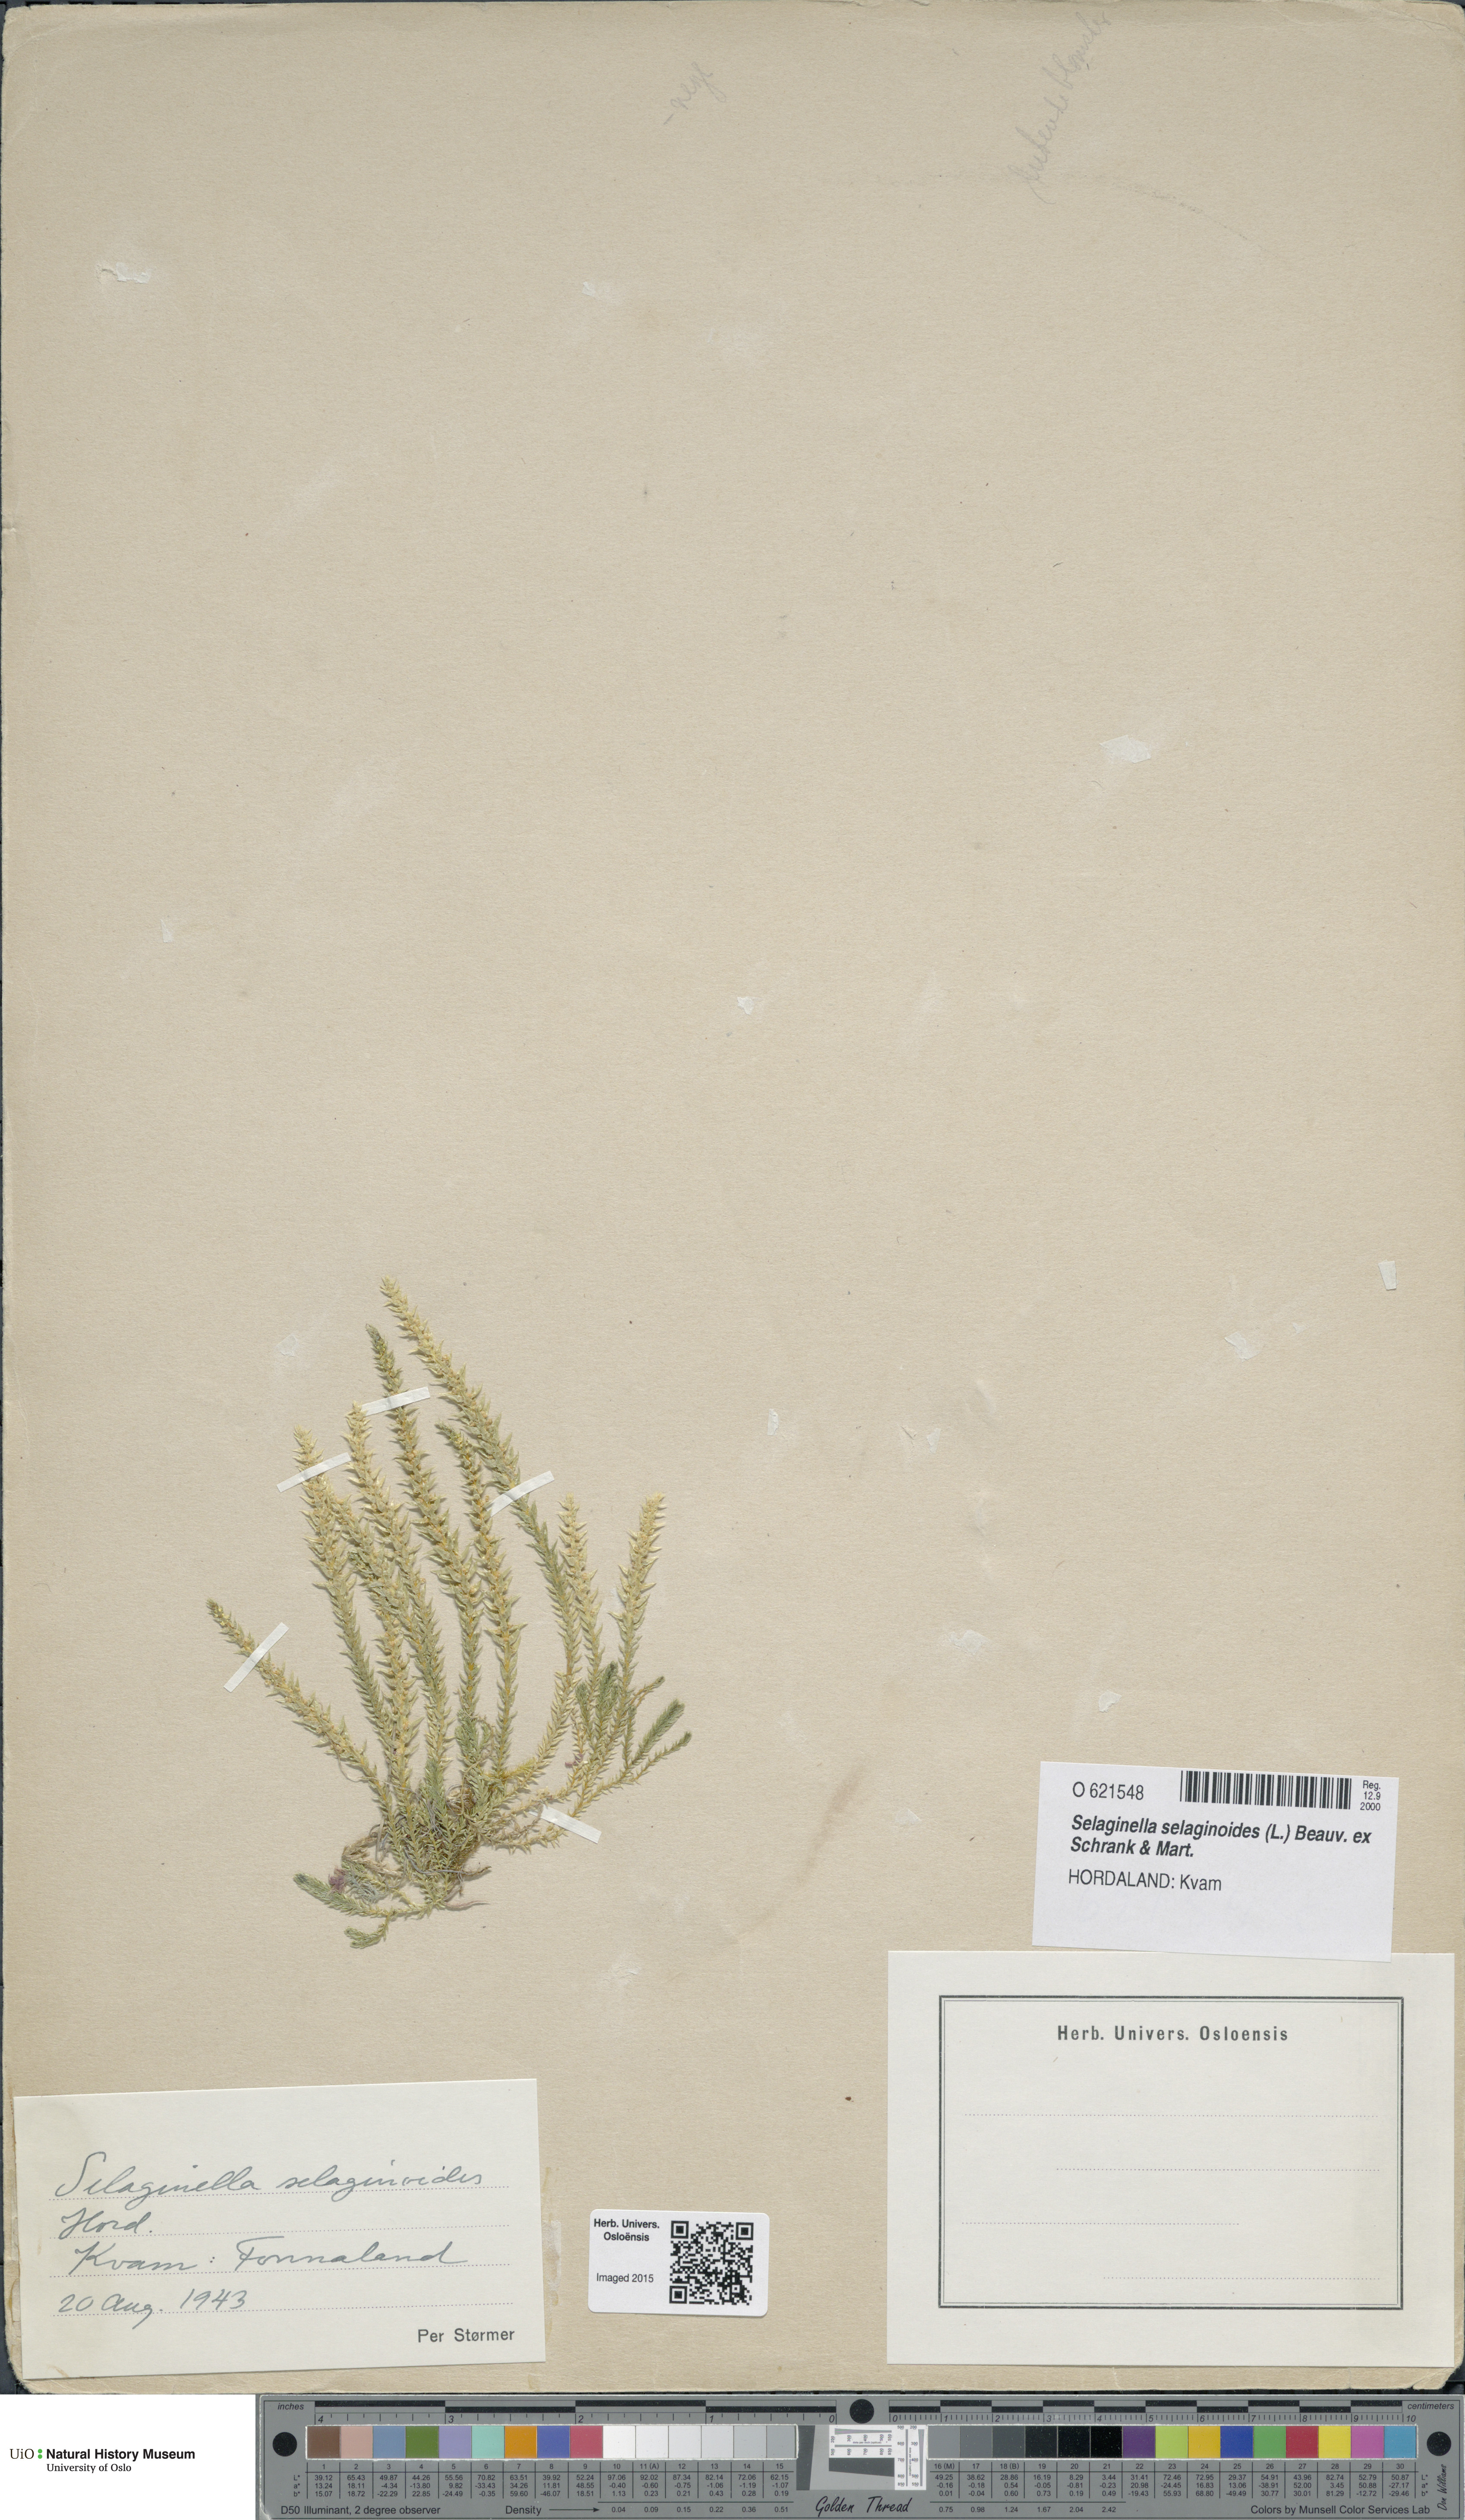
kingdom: Plantae
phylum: Tracheophyta
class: Lycopodiopsida
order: Selaginellales
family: Selaginellaceae
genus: Selaginella
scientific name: Selaginella selaginoides
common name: Prickly mountain-moss
